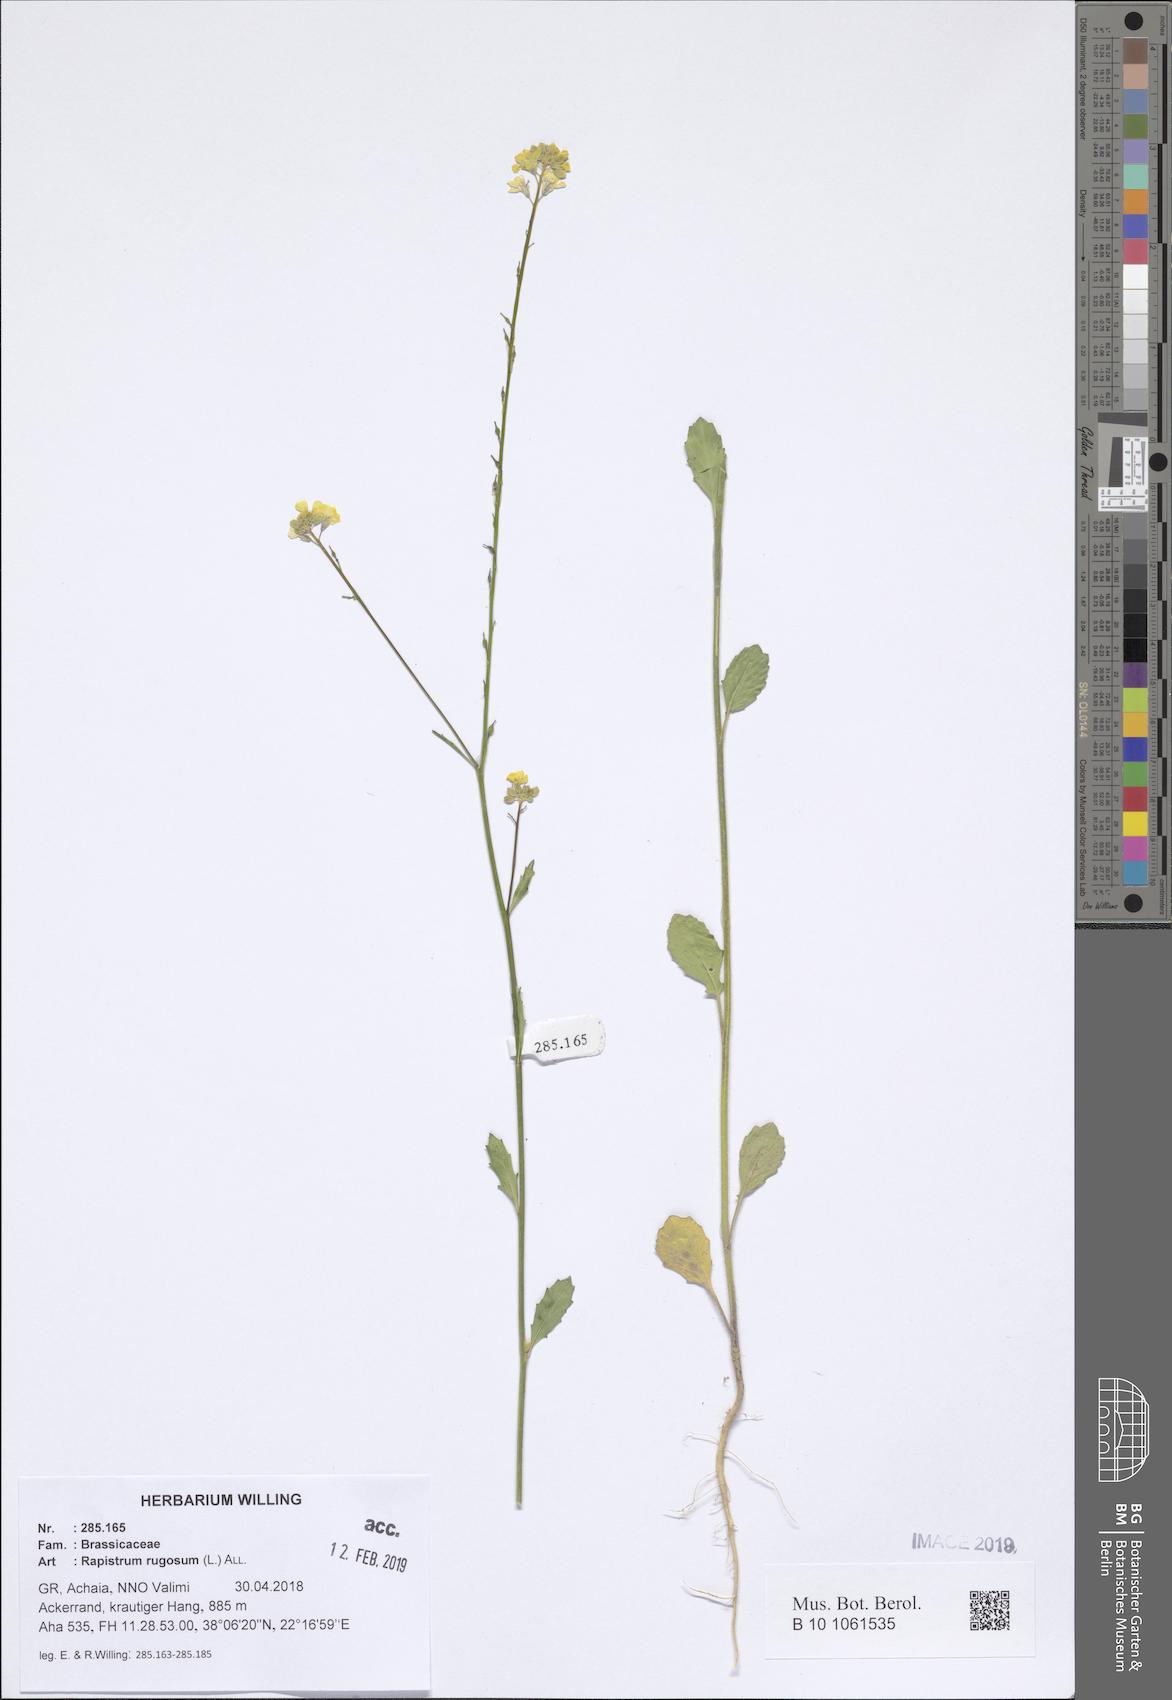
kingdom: Plantae
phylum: Tracheophyta
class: Magnoliopsida
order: Brassicales
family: Brassicaceae
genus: Rapistrum
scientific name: Rapistrum rugosum
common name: Annual bastardcabbage
